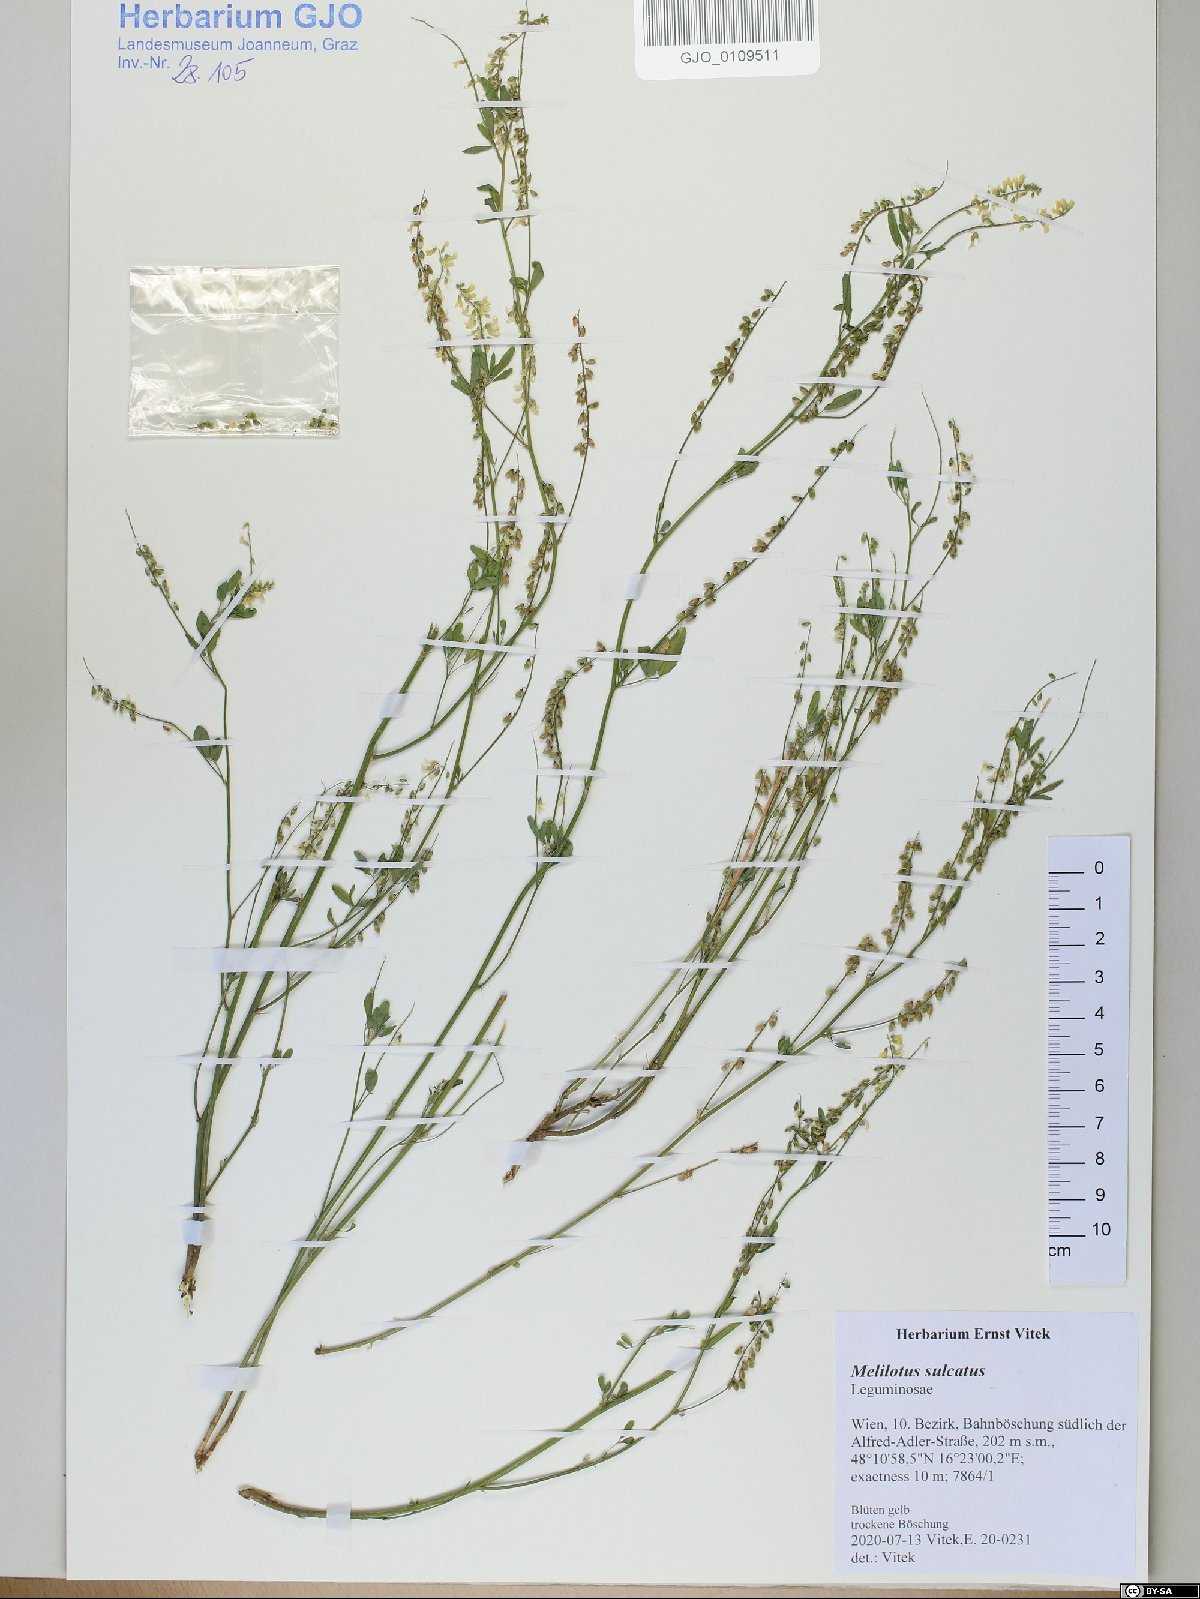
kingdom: Plantae
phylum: Tracheophyta
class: Magnoliopsida
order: Fabales
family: Fabaceae
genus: Melilotus
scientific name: Melilotus sulcatus
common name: Furrowed melilot
